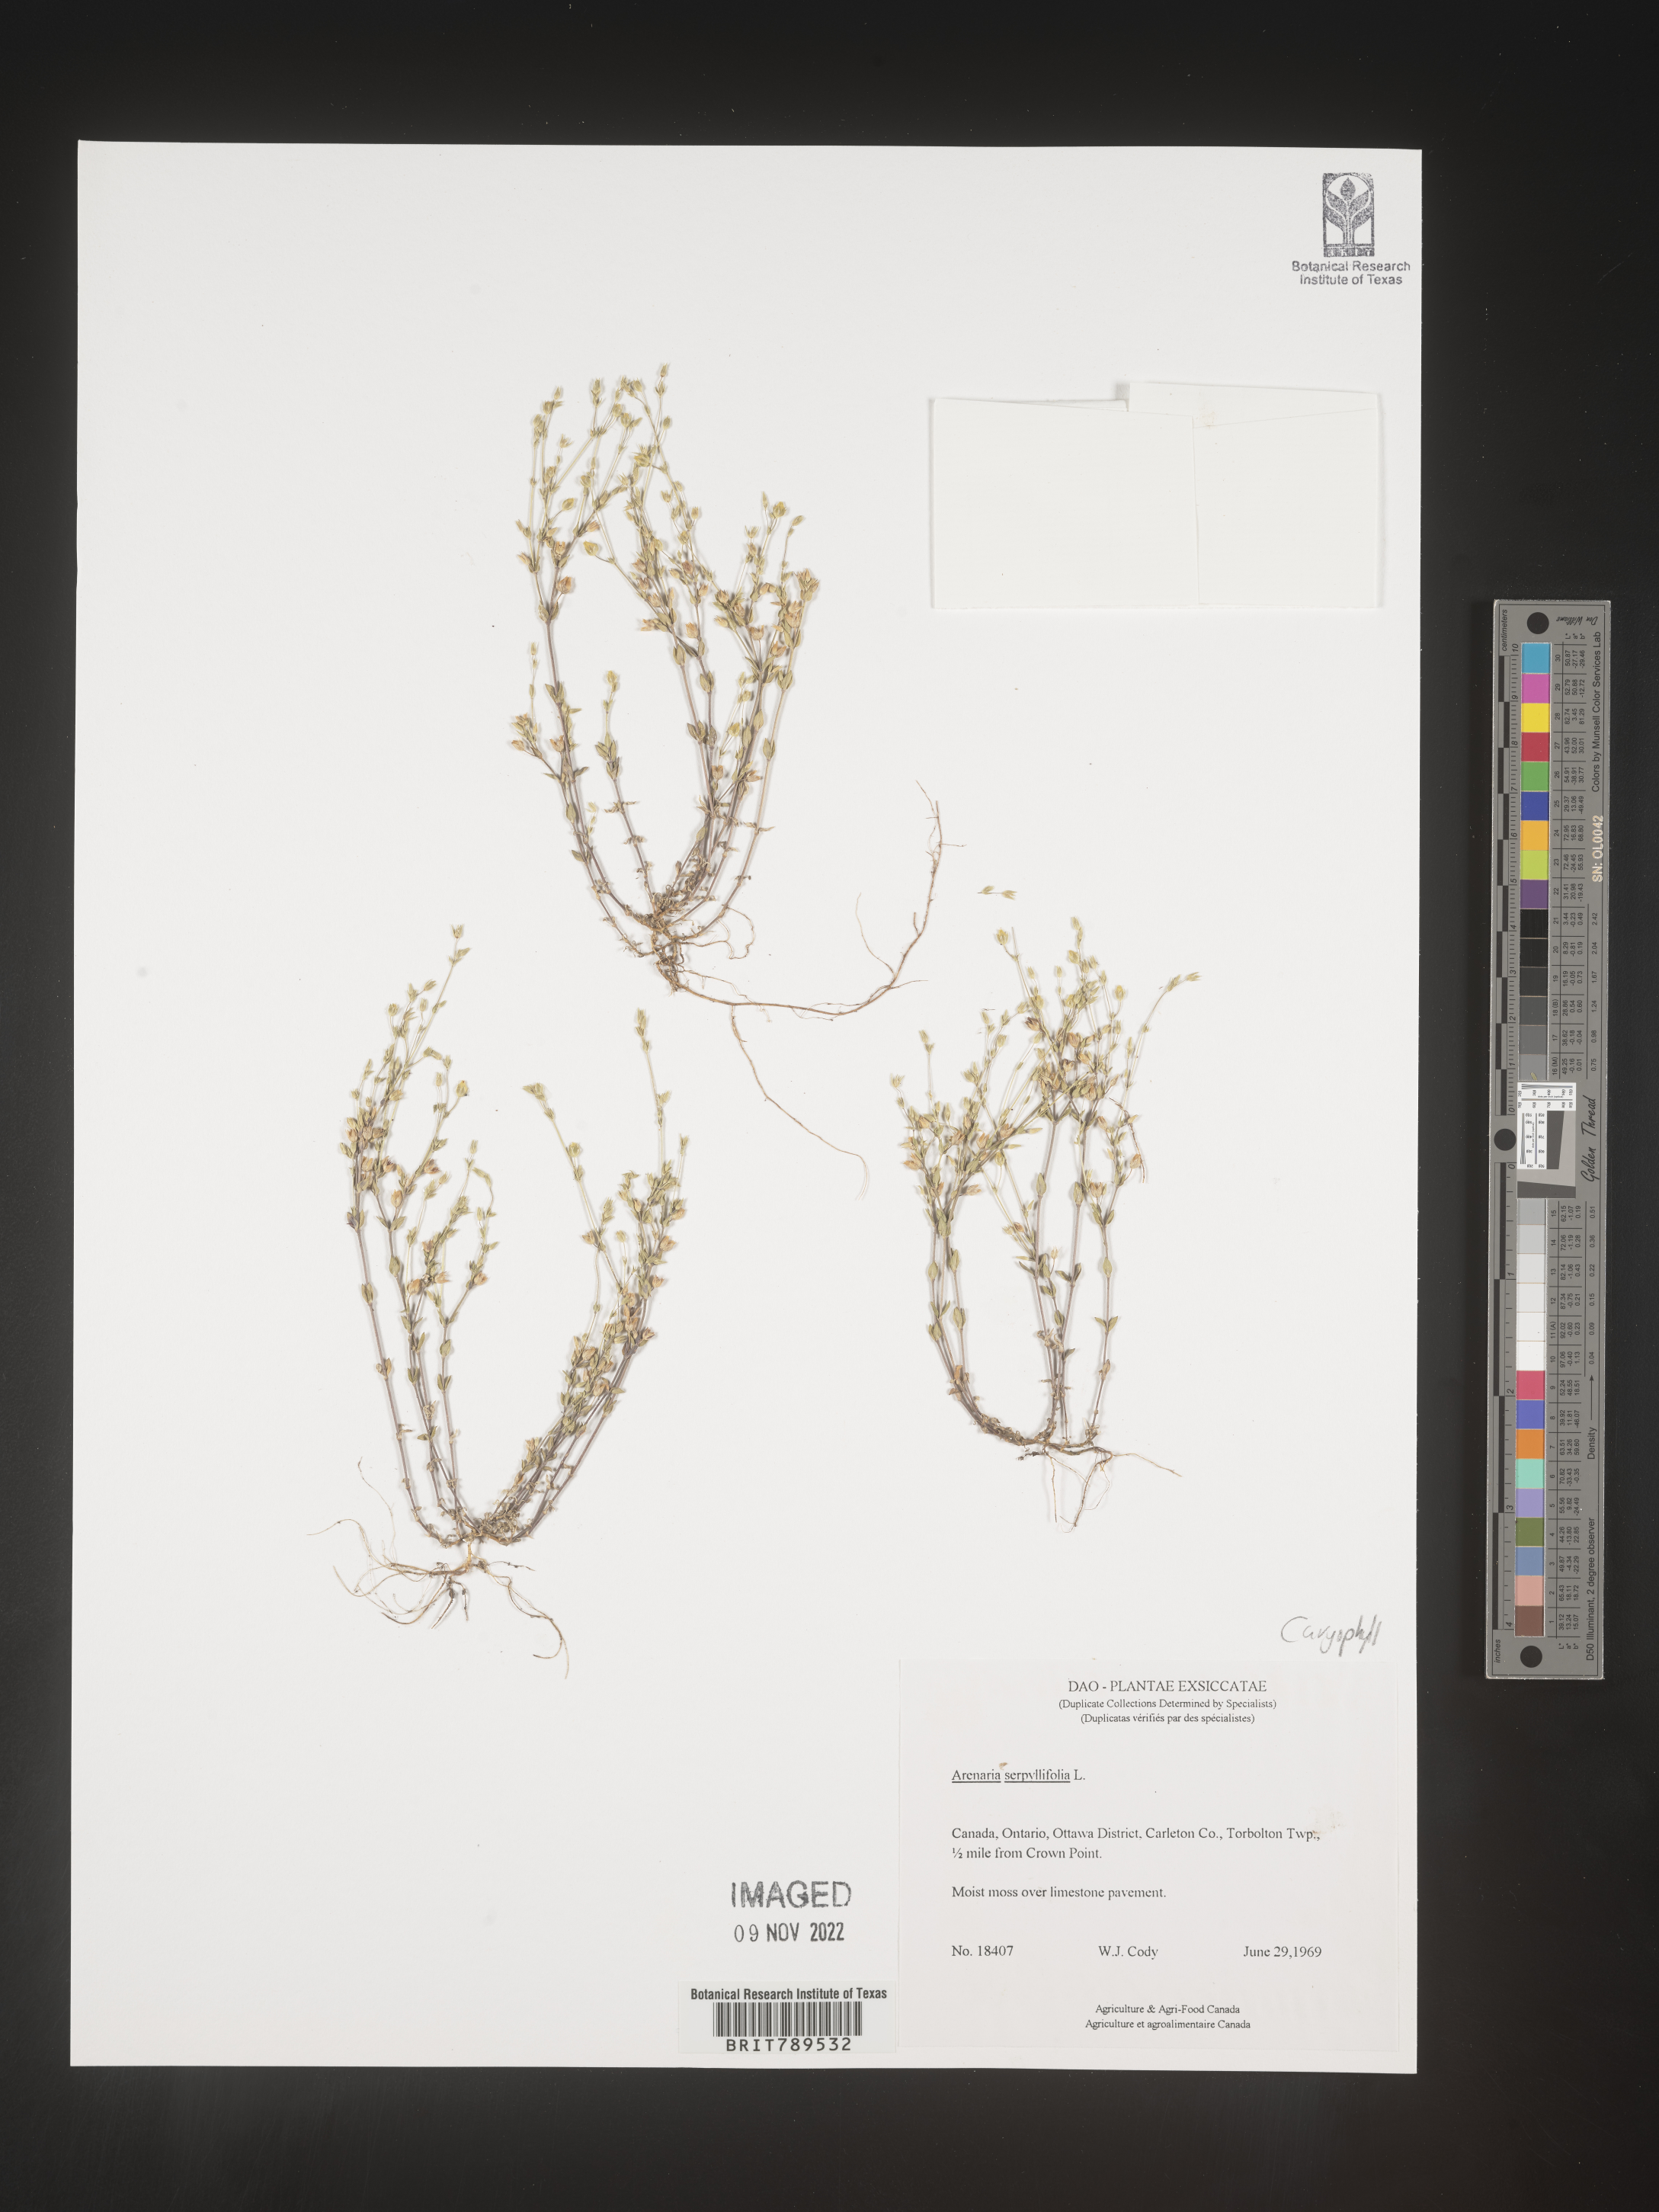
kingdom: Plantae
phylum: Tracheophyta
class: Magnoliopsida
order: Caryophyllales
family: Caryophyllaceae
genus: Arenaria
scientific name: Arenaria serpyllifolia
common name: Thyme-leaved sandwort
